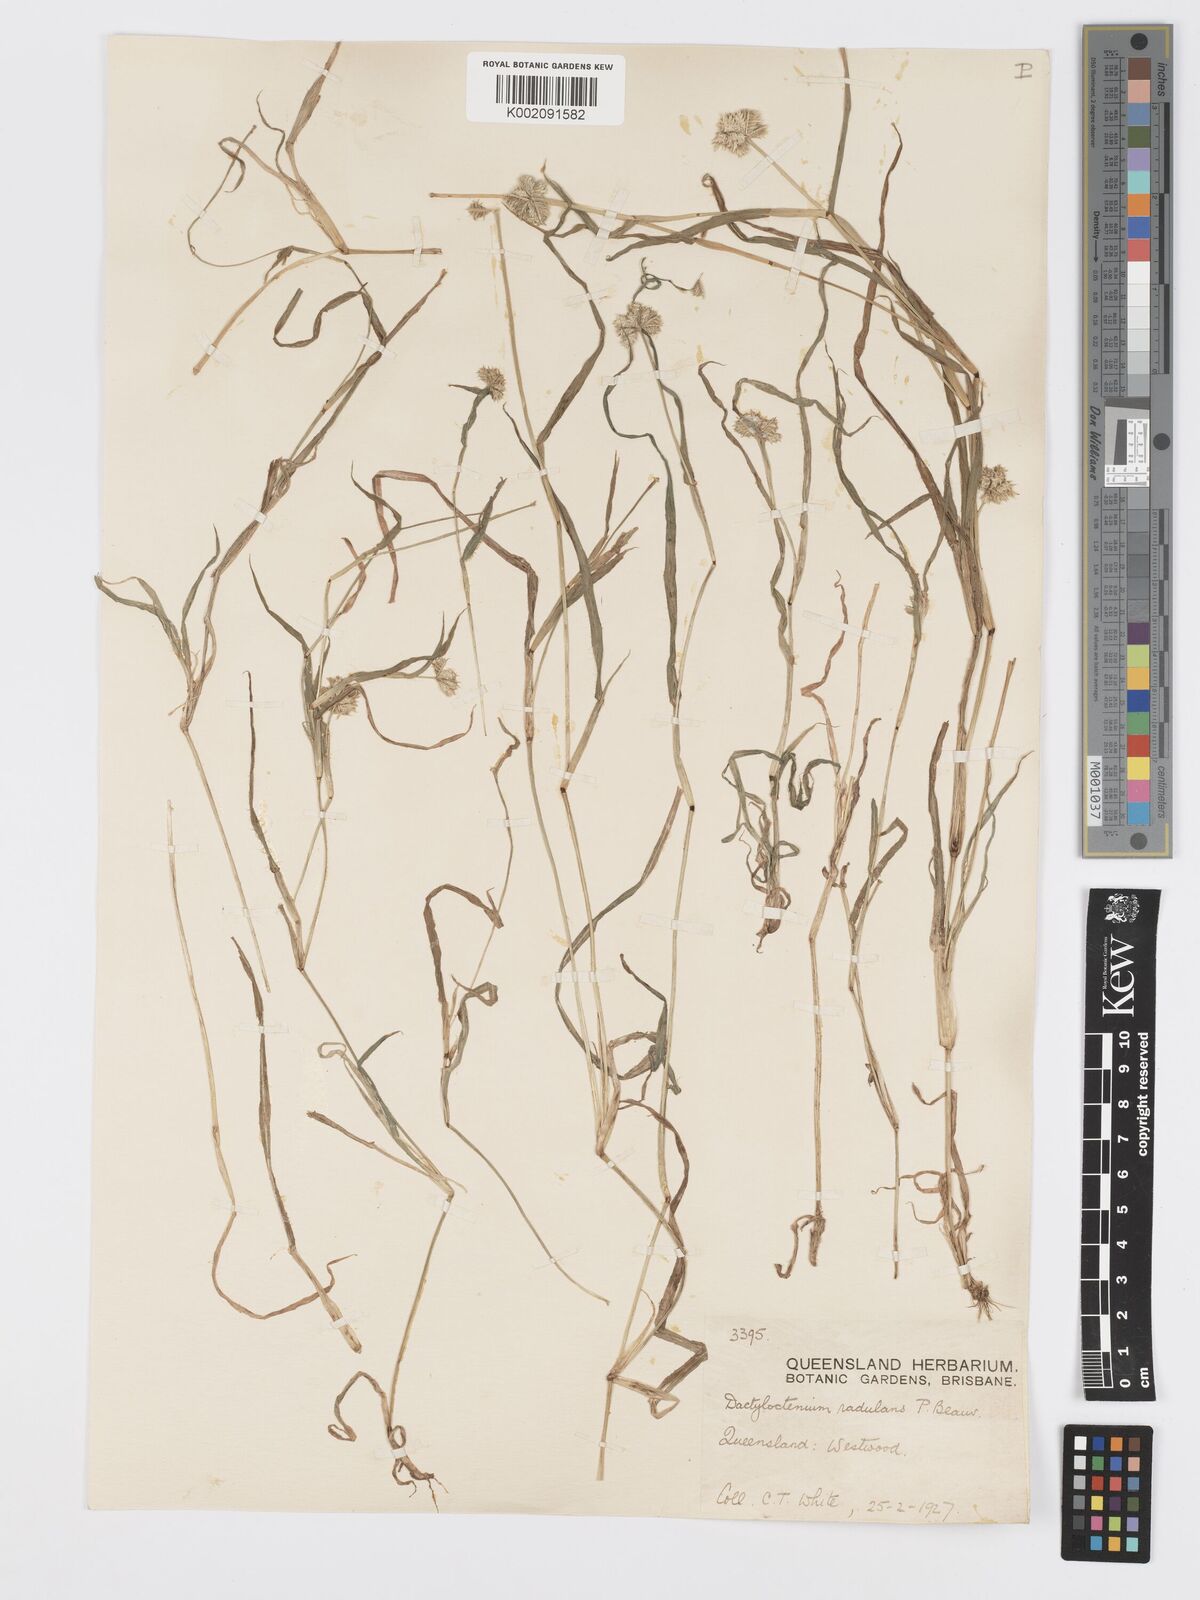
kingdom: Plantae
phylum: Tracheophyta
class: Liliopsida
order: Poales
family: Poaceae
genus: Dactyloctenium
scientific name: Dactyloctenium radulans
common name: Button-grass
